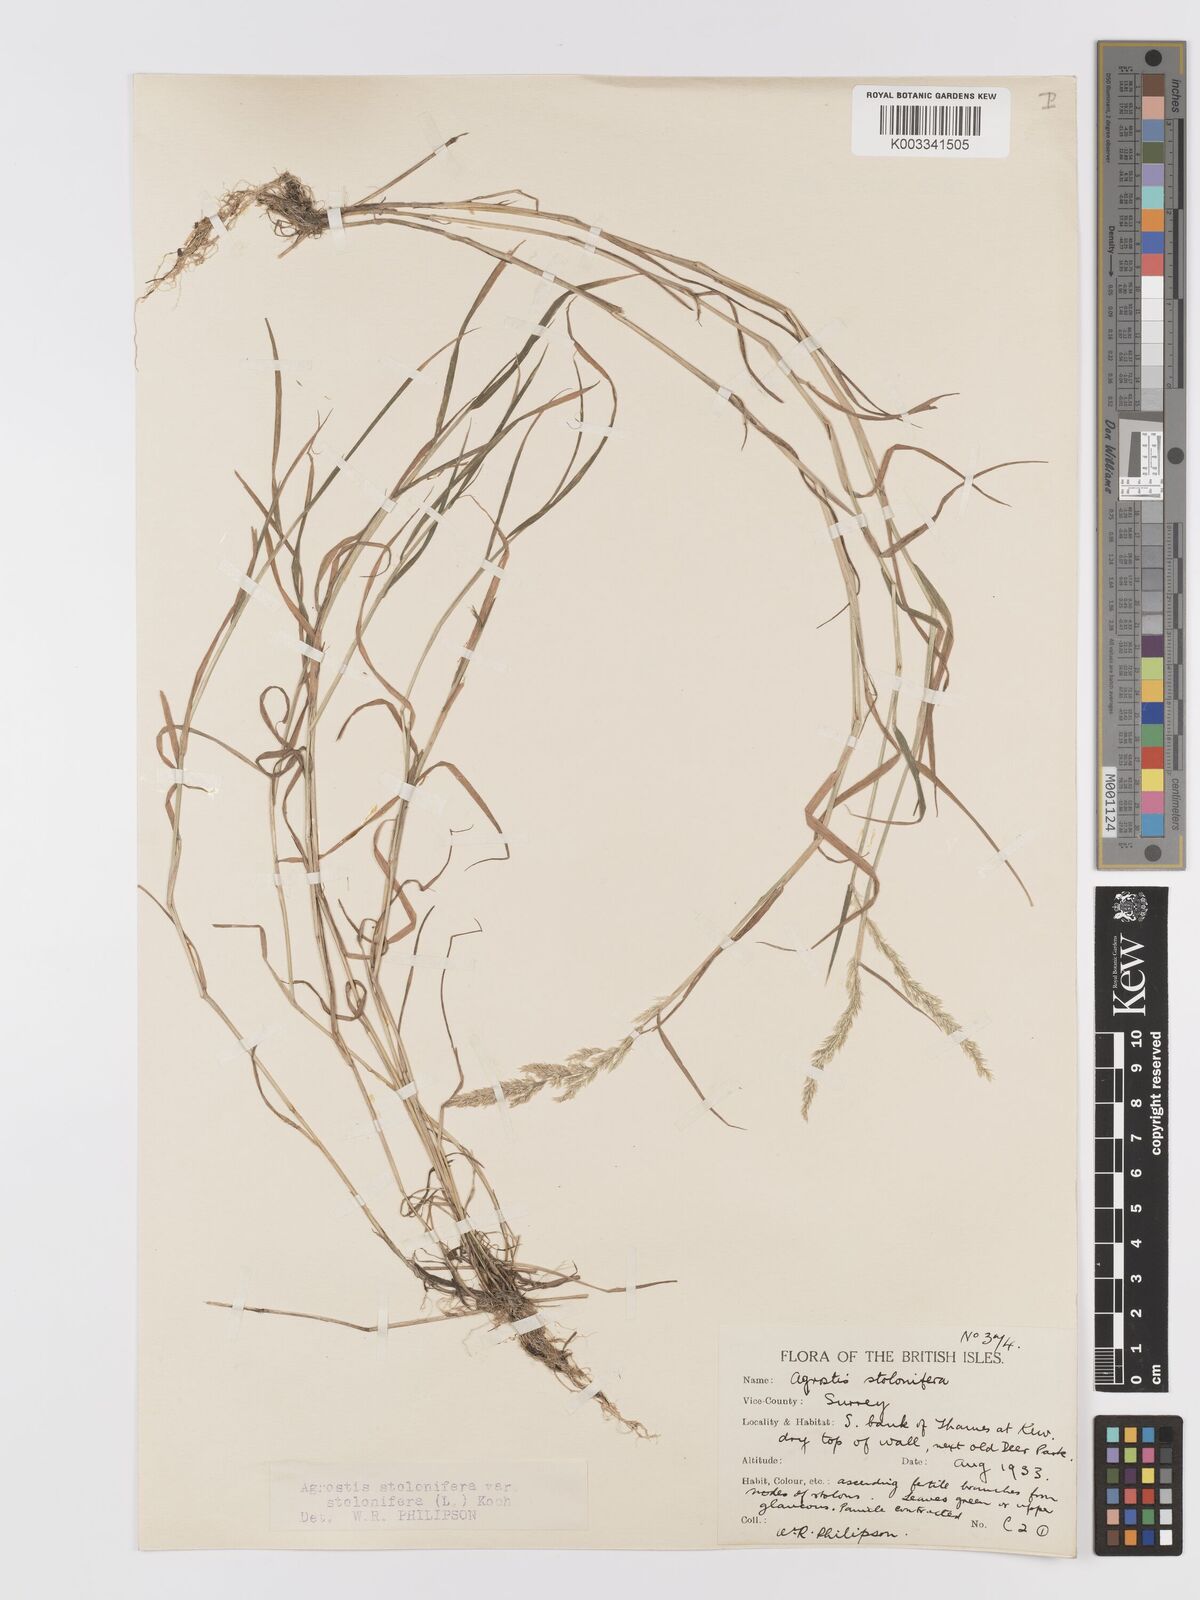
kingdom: Plantae
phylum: Tracheophyta
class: Liliopsida
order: Poales
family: Poaceae
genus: Agrostis
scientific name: Agrostis stolonifera
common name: Creeping bentgrass
